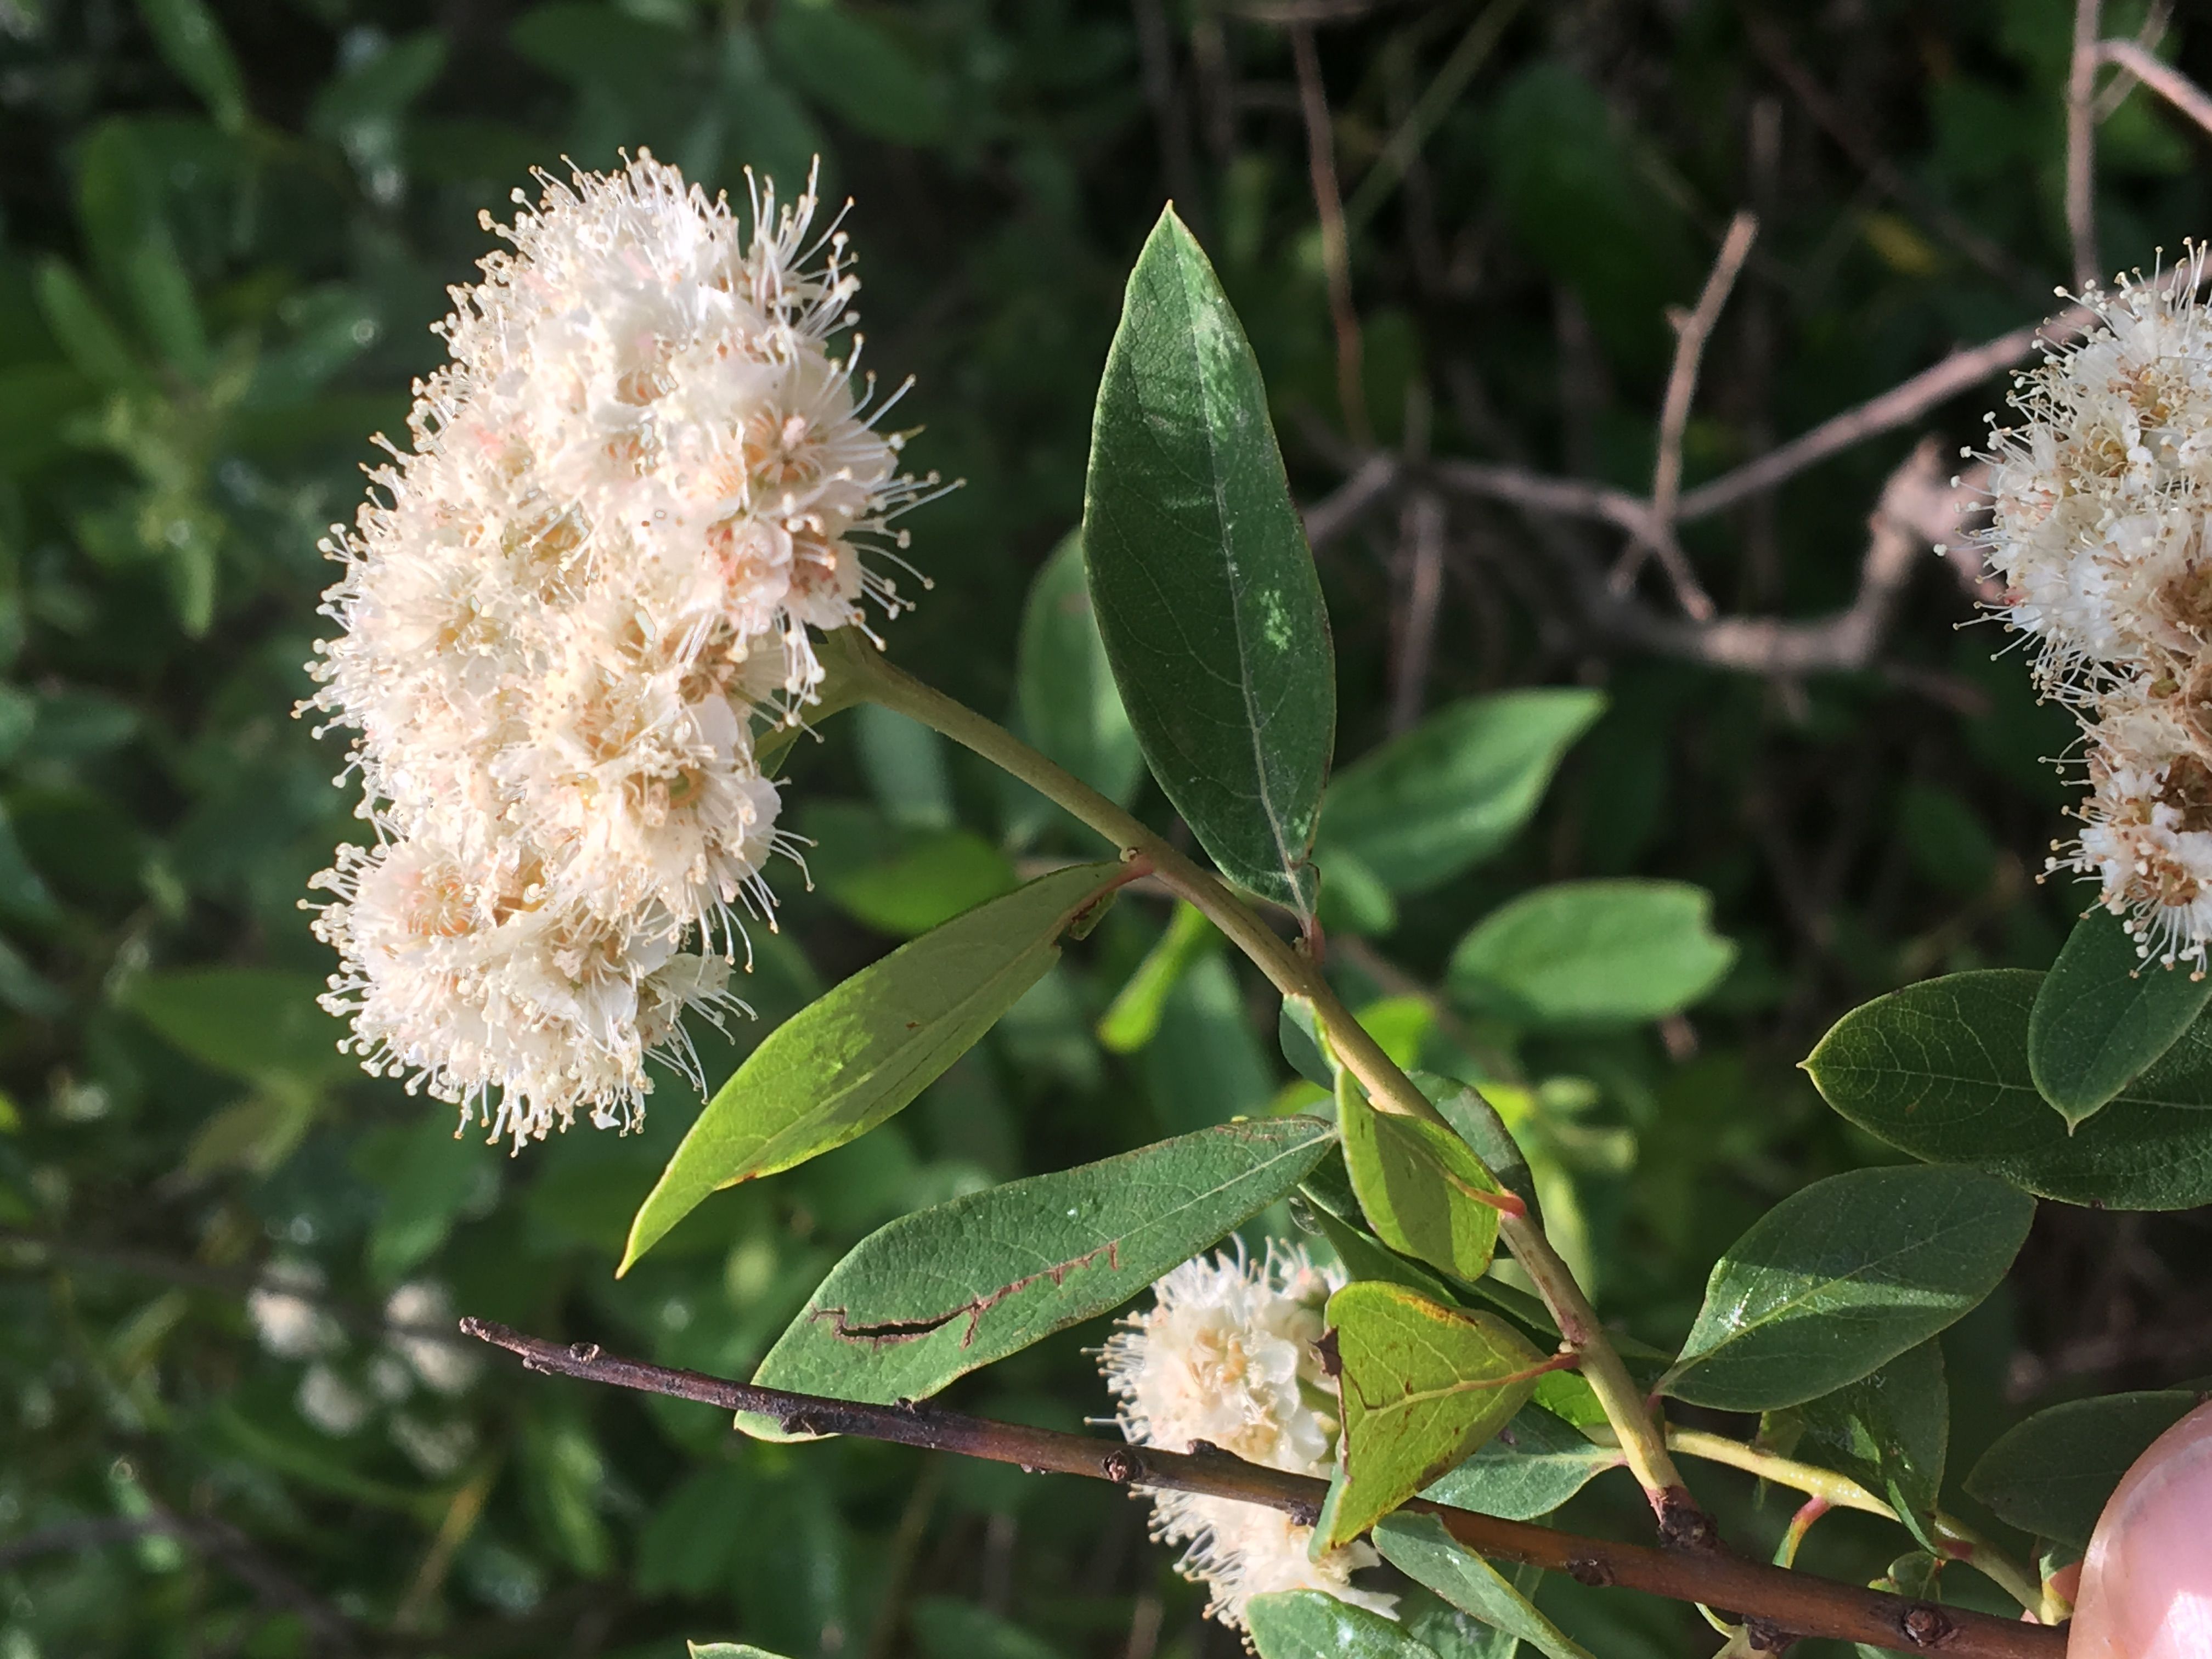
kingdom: Plantae
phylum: Tracheophyta
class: Magnoliopsida
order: Rosales
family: Rosaceae
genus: Spiraea
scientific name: Spiraea virginiana
